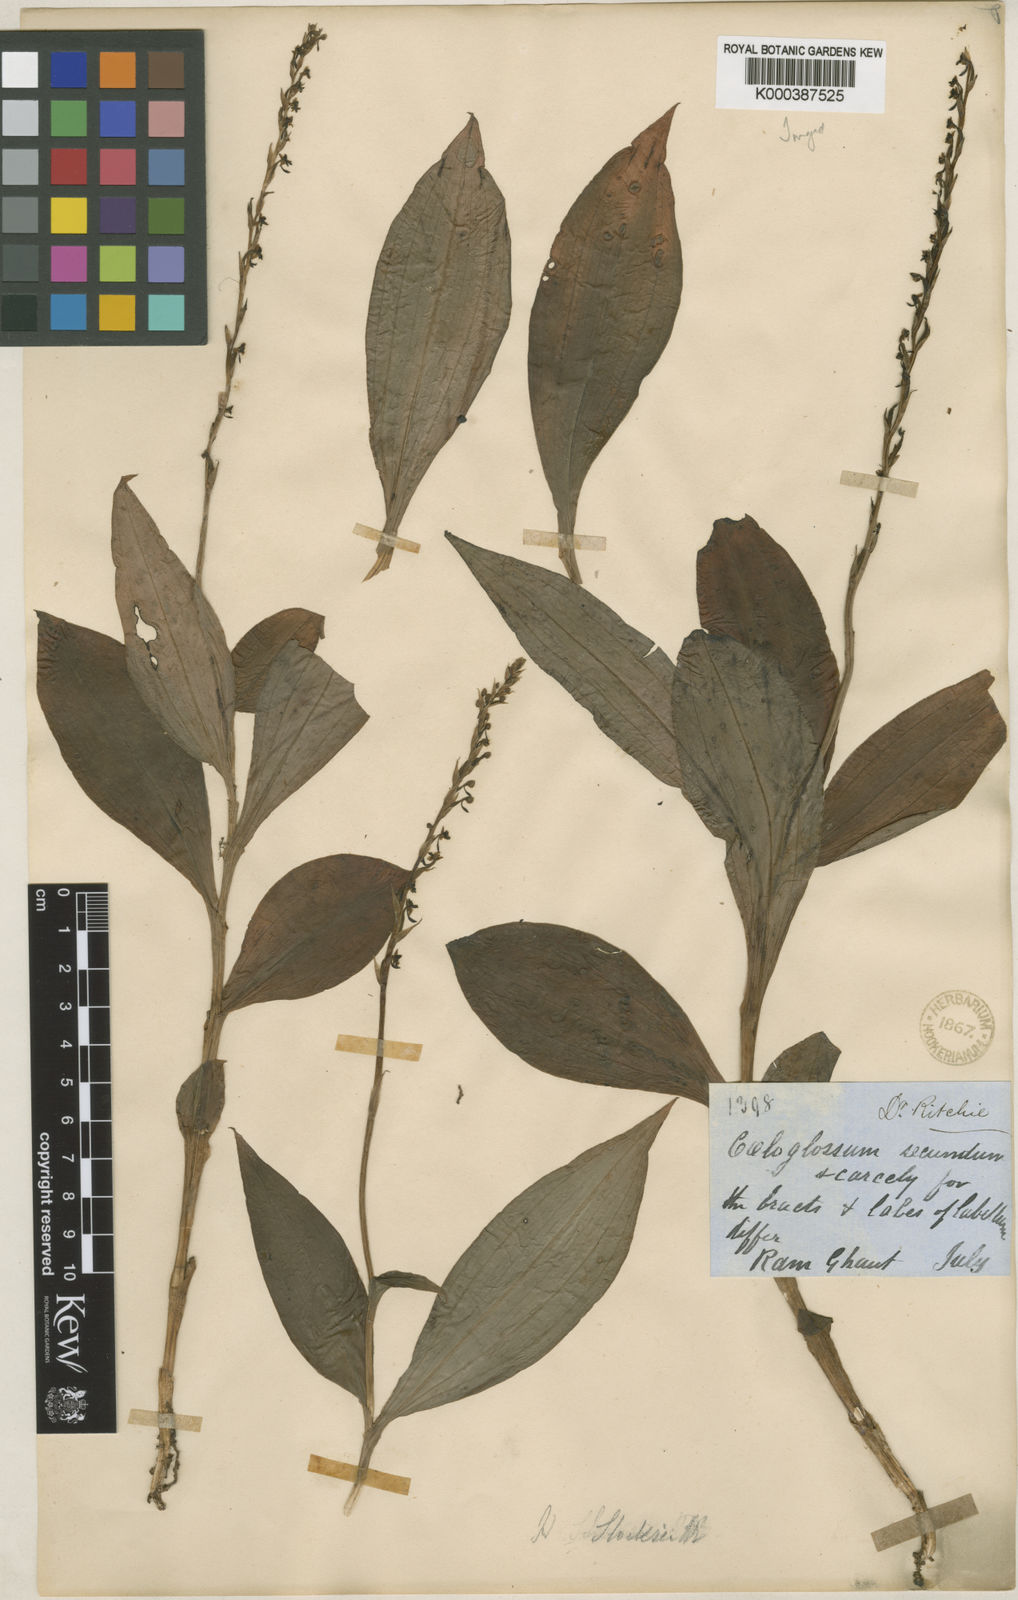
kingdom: Plantae
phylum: Tracheophyta
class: Liliopsida
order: Asparagales
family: Orchidaceae
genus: Peristylus
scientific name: Peristylus stocksii
